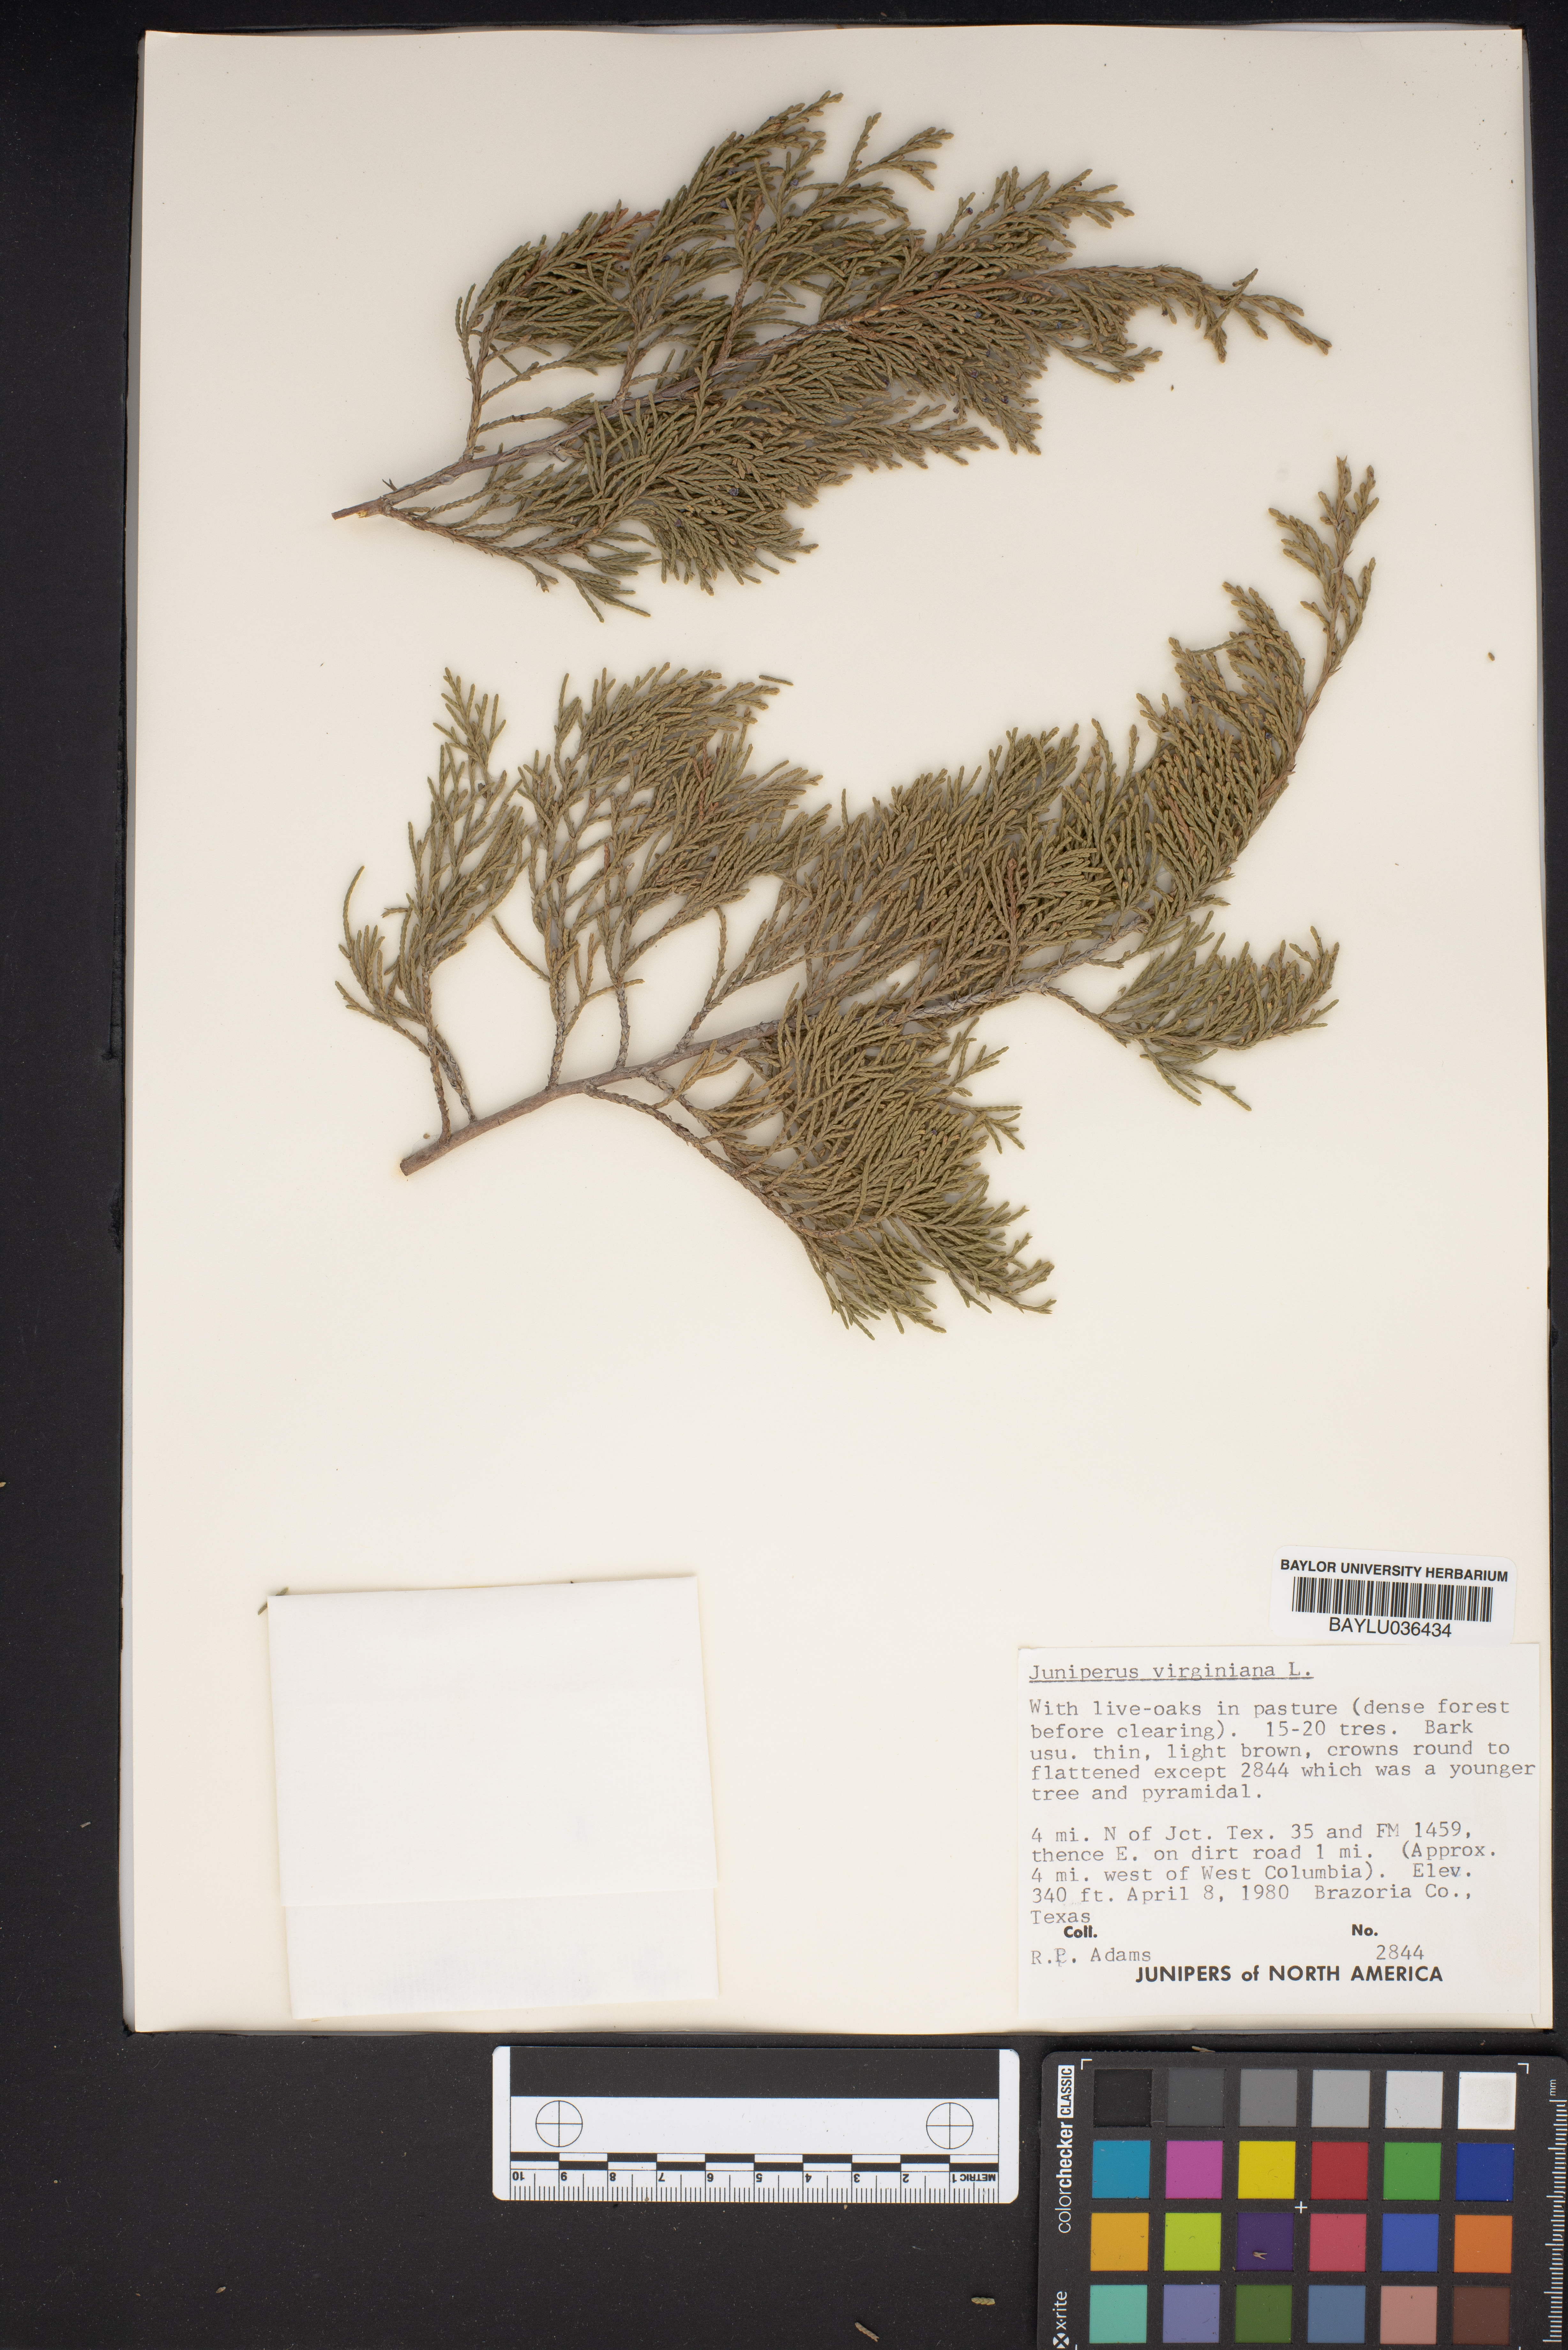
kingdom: Plantae
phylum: Tracheophyta
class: Pinopsida
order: Pinales
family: Cupressaceae
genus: Juniperus
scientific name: Juniperus virginiana
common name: Red juniper
